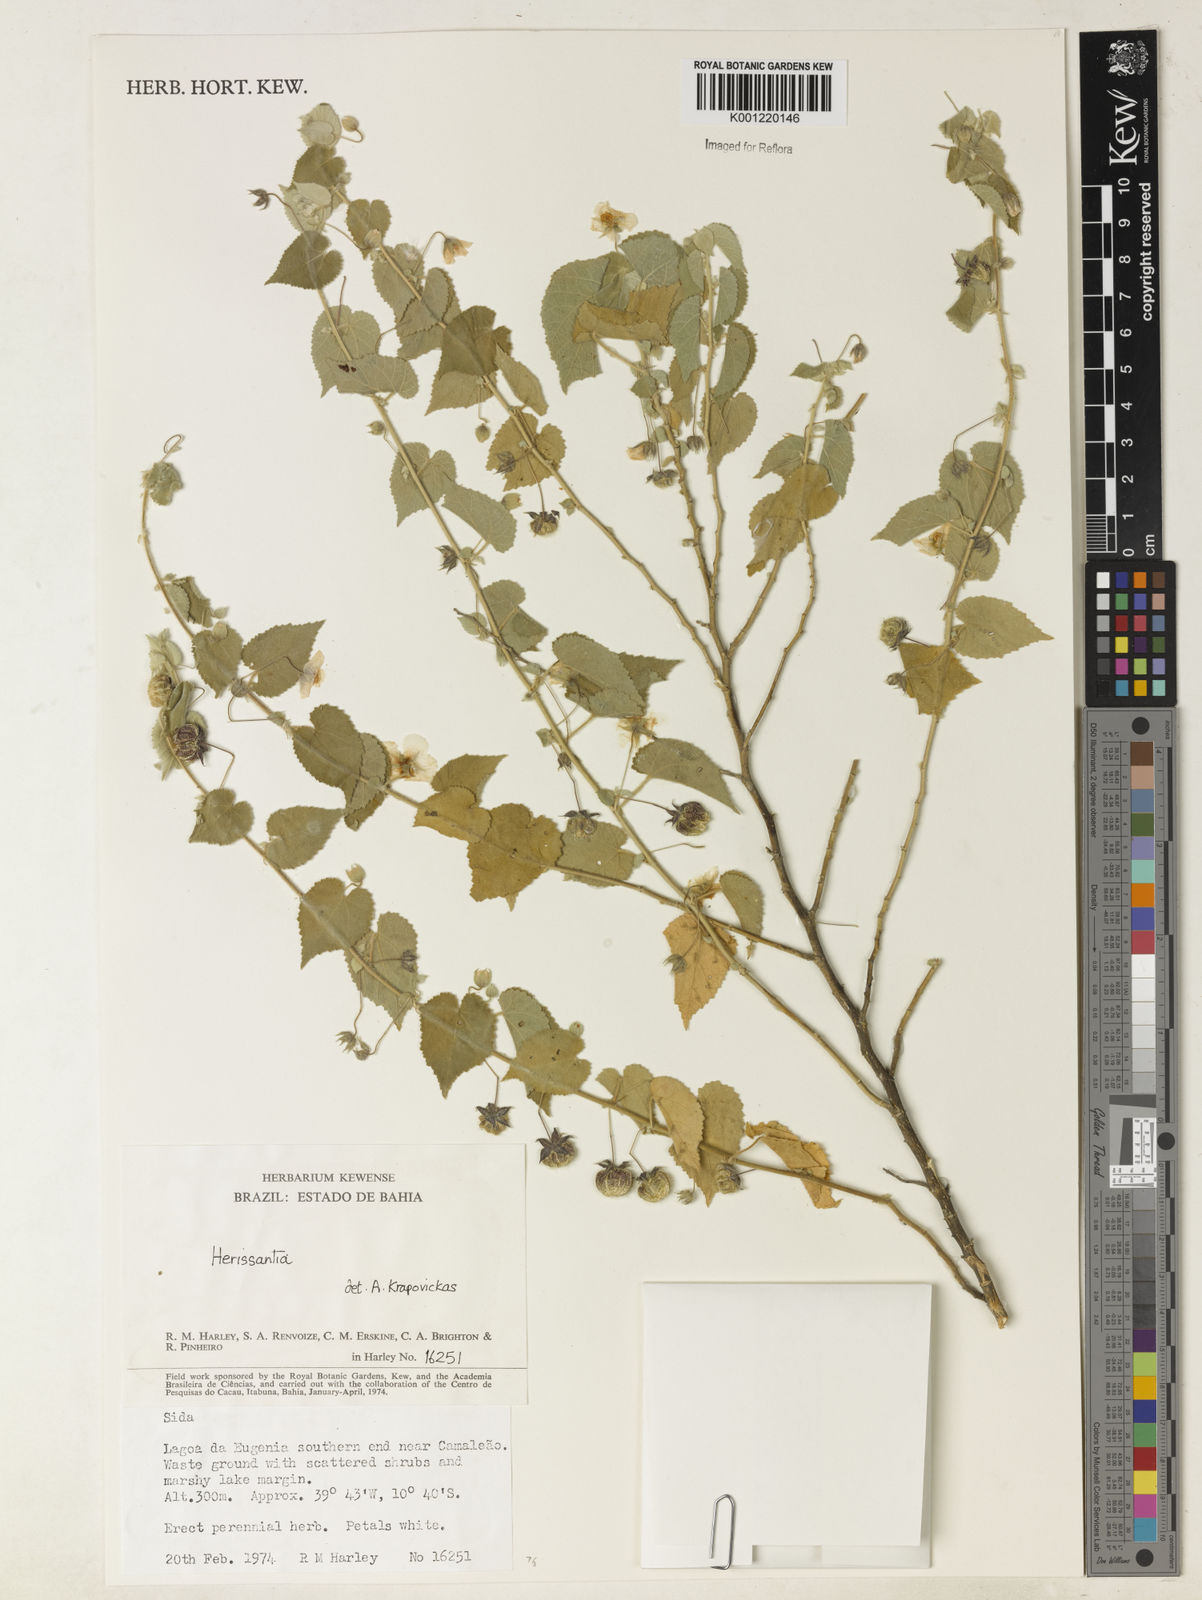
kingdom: Plantae
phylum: Tracheophyta
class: Magnoliopsida
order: Malvales
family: Malvaceae
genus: Herissantia
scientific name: Herissantia
